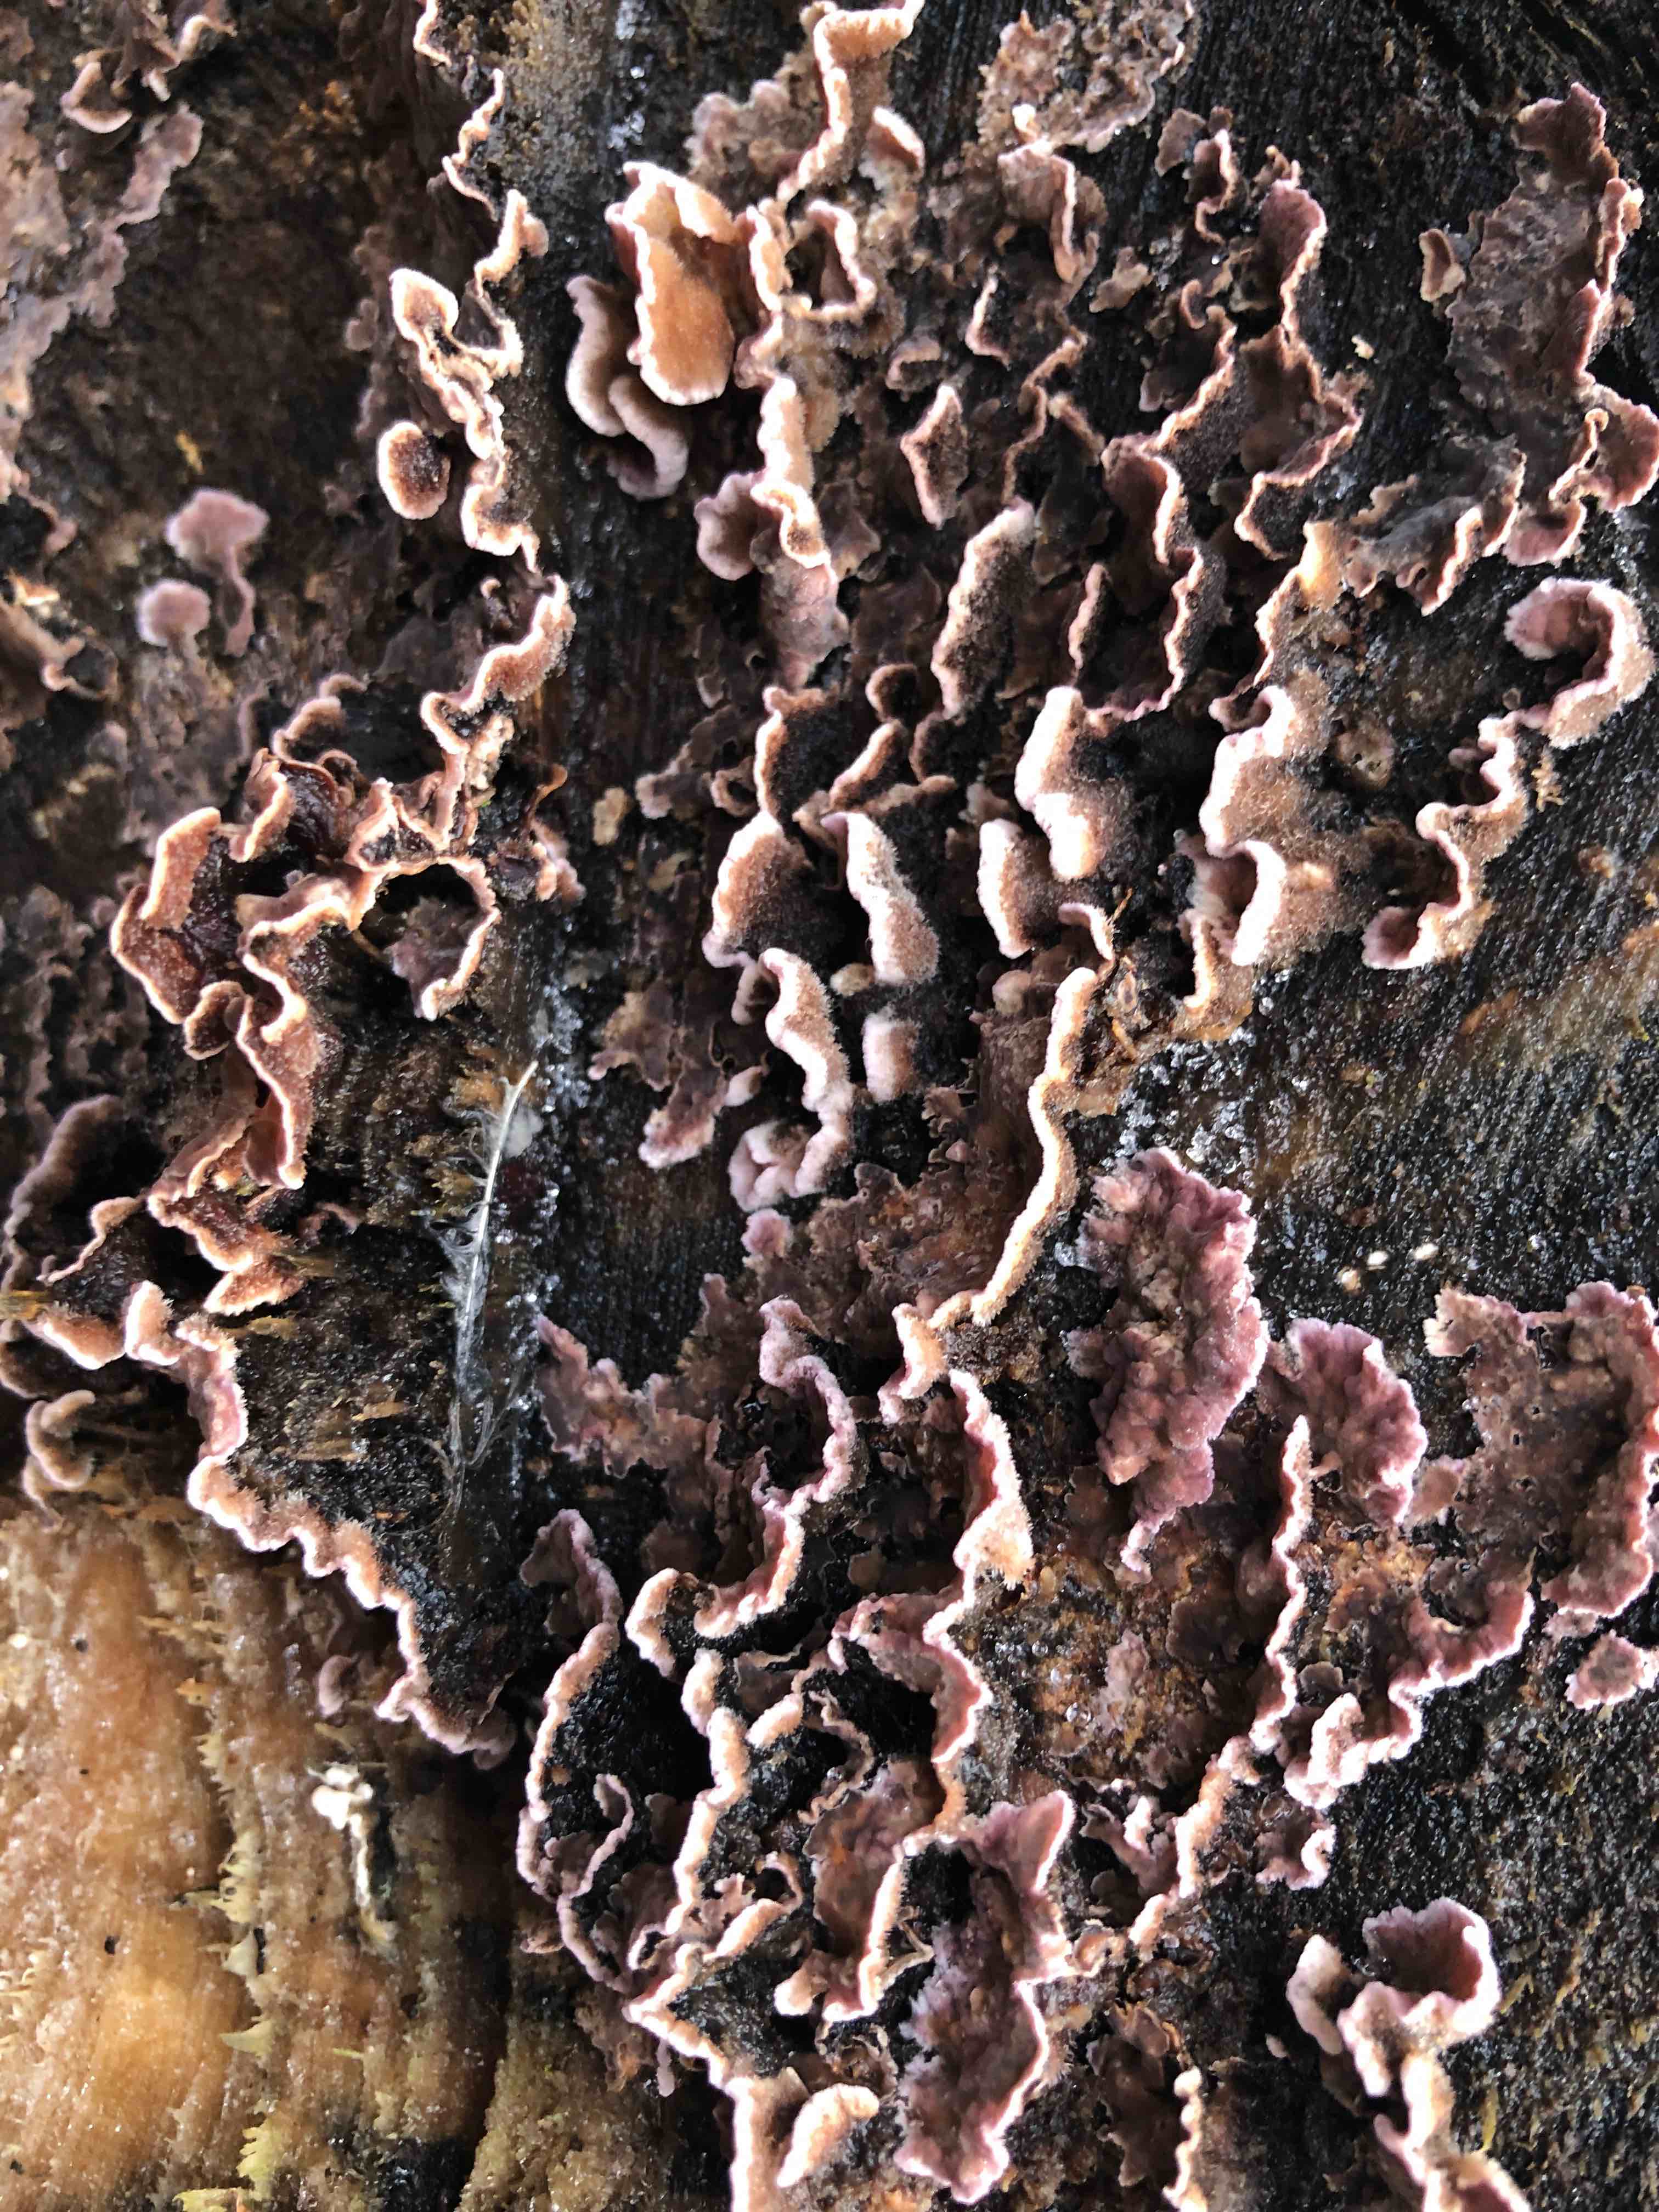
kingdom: Fungi
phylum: Basidiomycota
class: Agaricomycetes
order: Agaricales
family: Cyphellaceae
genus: Chondrostereum
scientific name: Chondrostereum purpureum
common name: purpurlædersvamp
